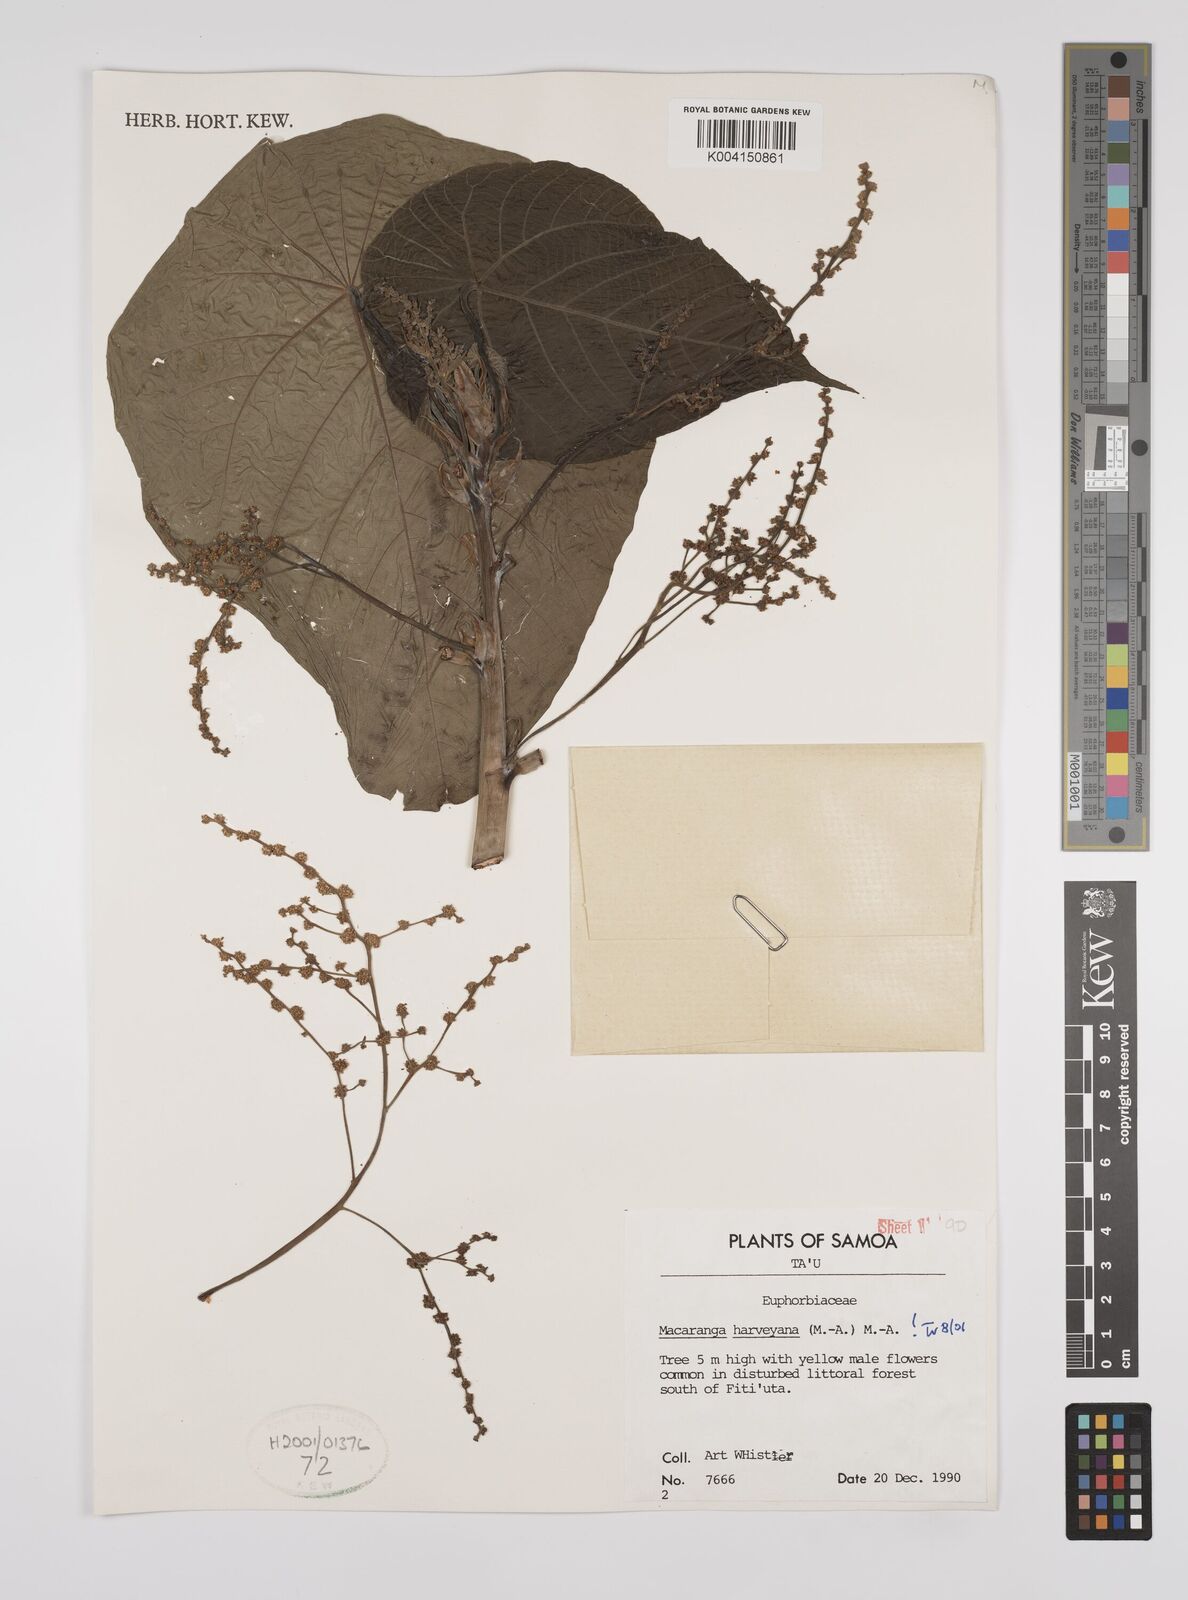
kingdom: Plantae
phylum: Tracheophyta
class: Magnoliopsida
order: Malpighiales
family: Euphorbiaceae
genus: Macaranga
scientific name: Macaranga harveyana
